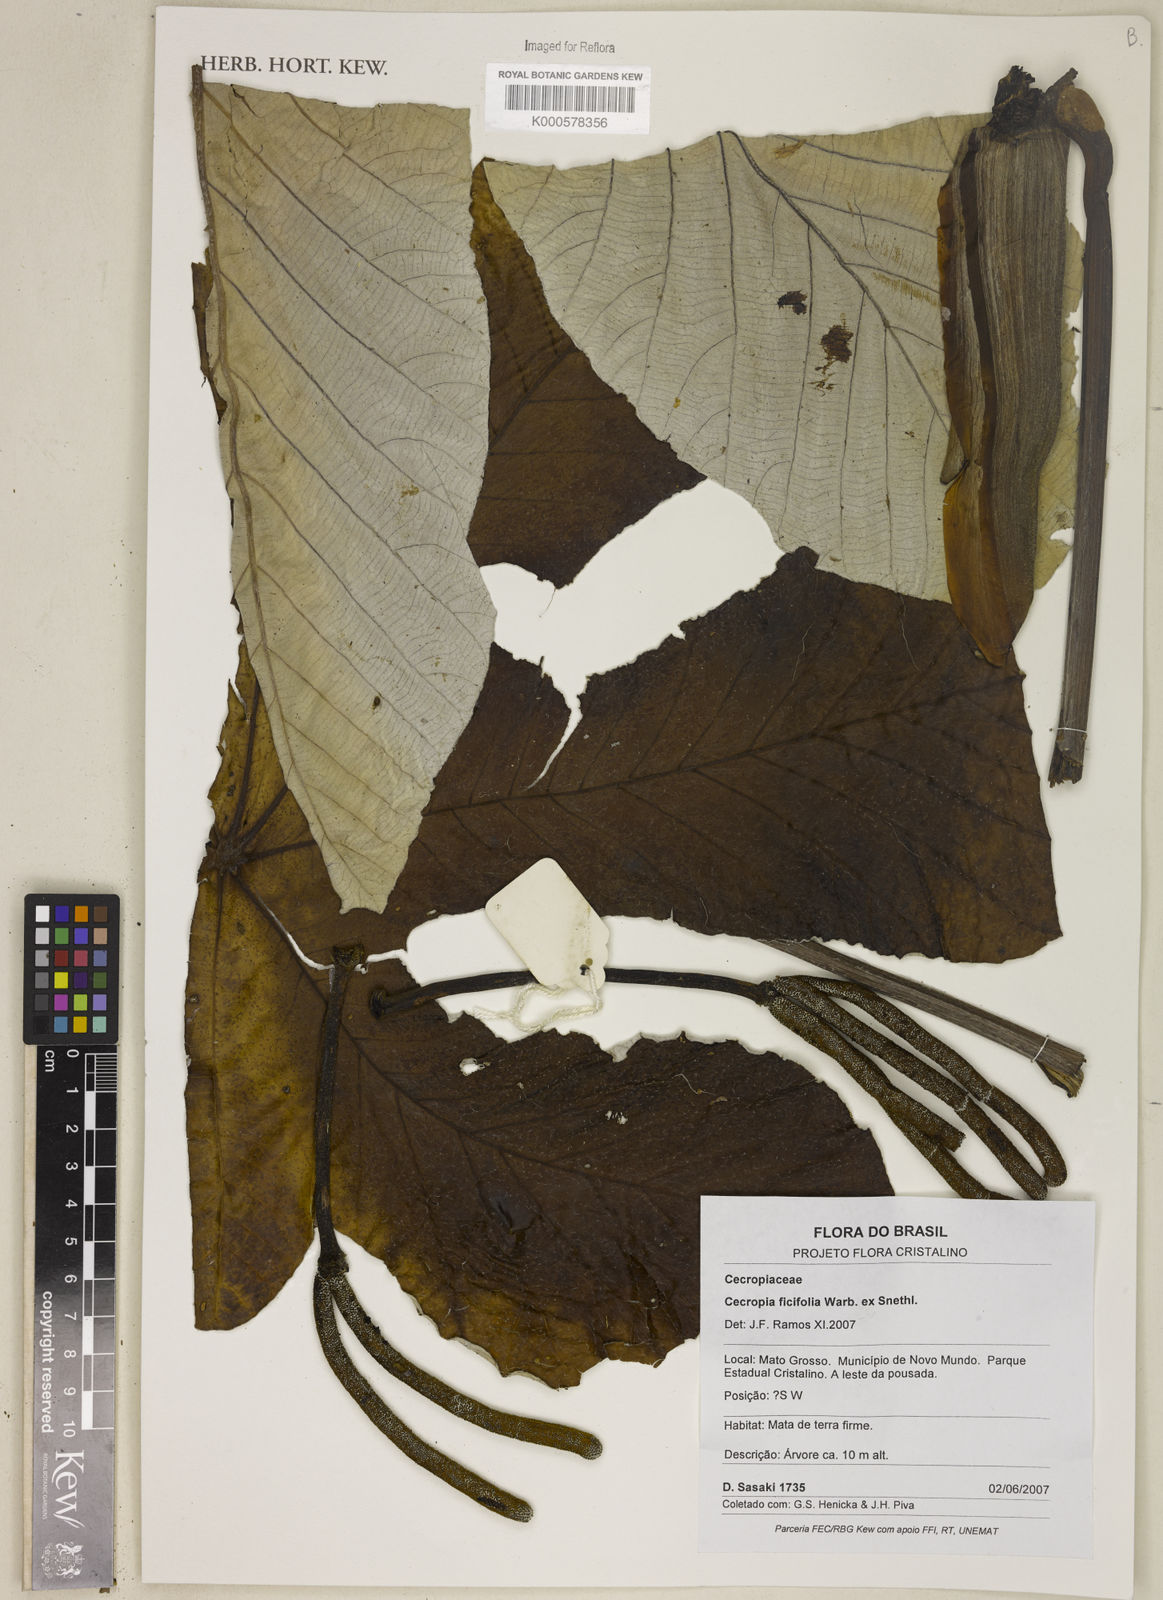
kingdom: Plantae
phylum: Tracheophyta
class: Magnoliopsida
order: Rosales
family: Urticaceae
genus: Cecropia
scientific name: Cecropia ficifolia
